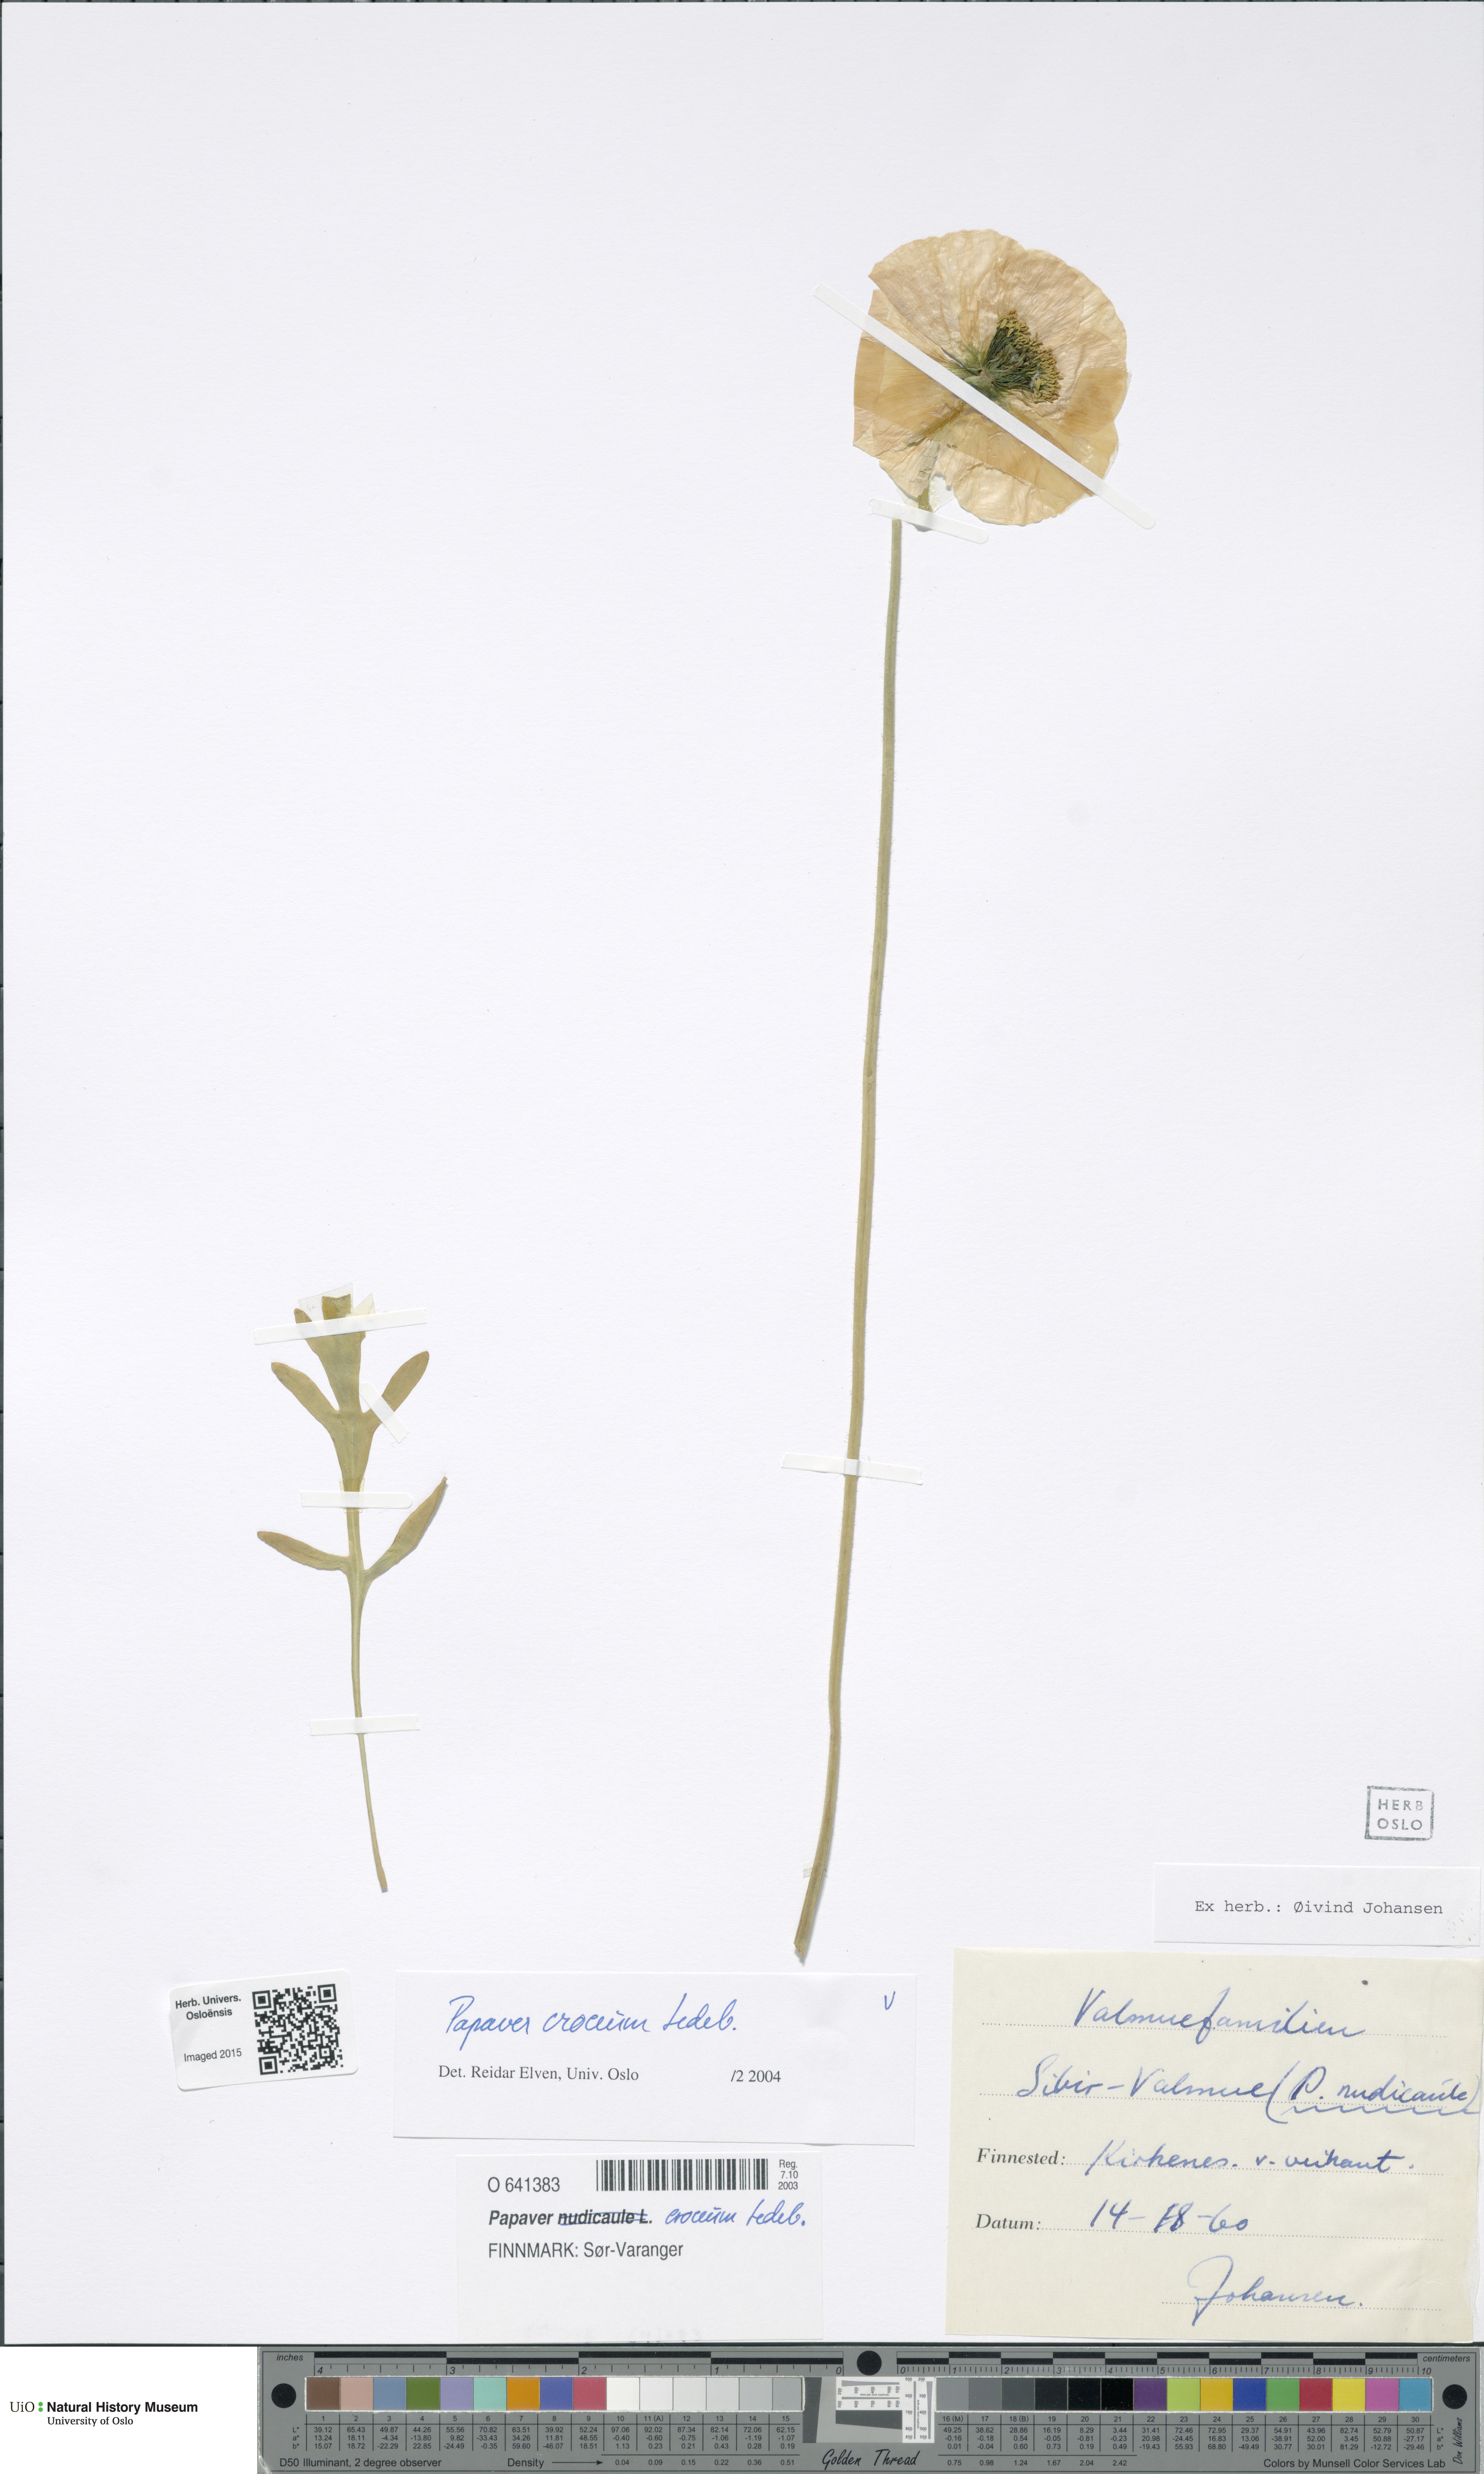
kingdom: Plantae
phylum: Tracheophyta
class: Magnoliopsida
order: Ranunculales
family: Papaveraceae
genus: Papaver
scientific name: Papaver croceum
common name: Siberian poppy
